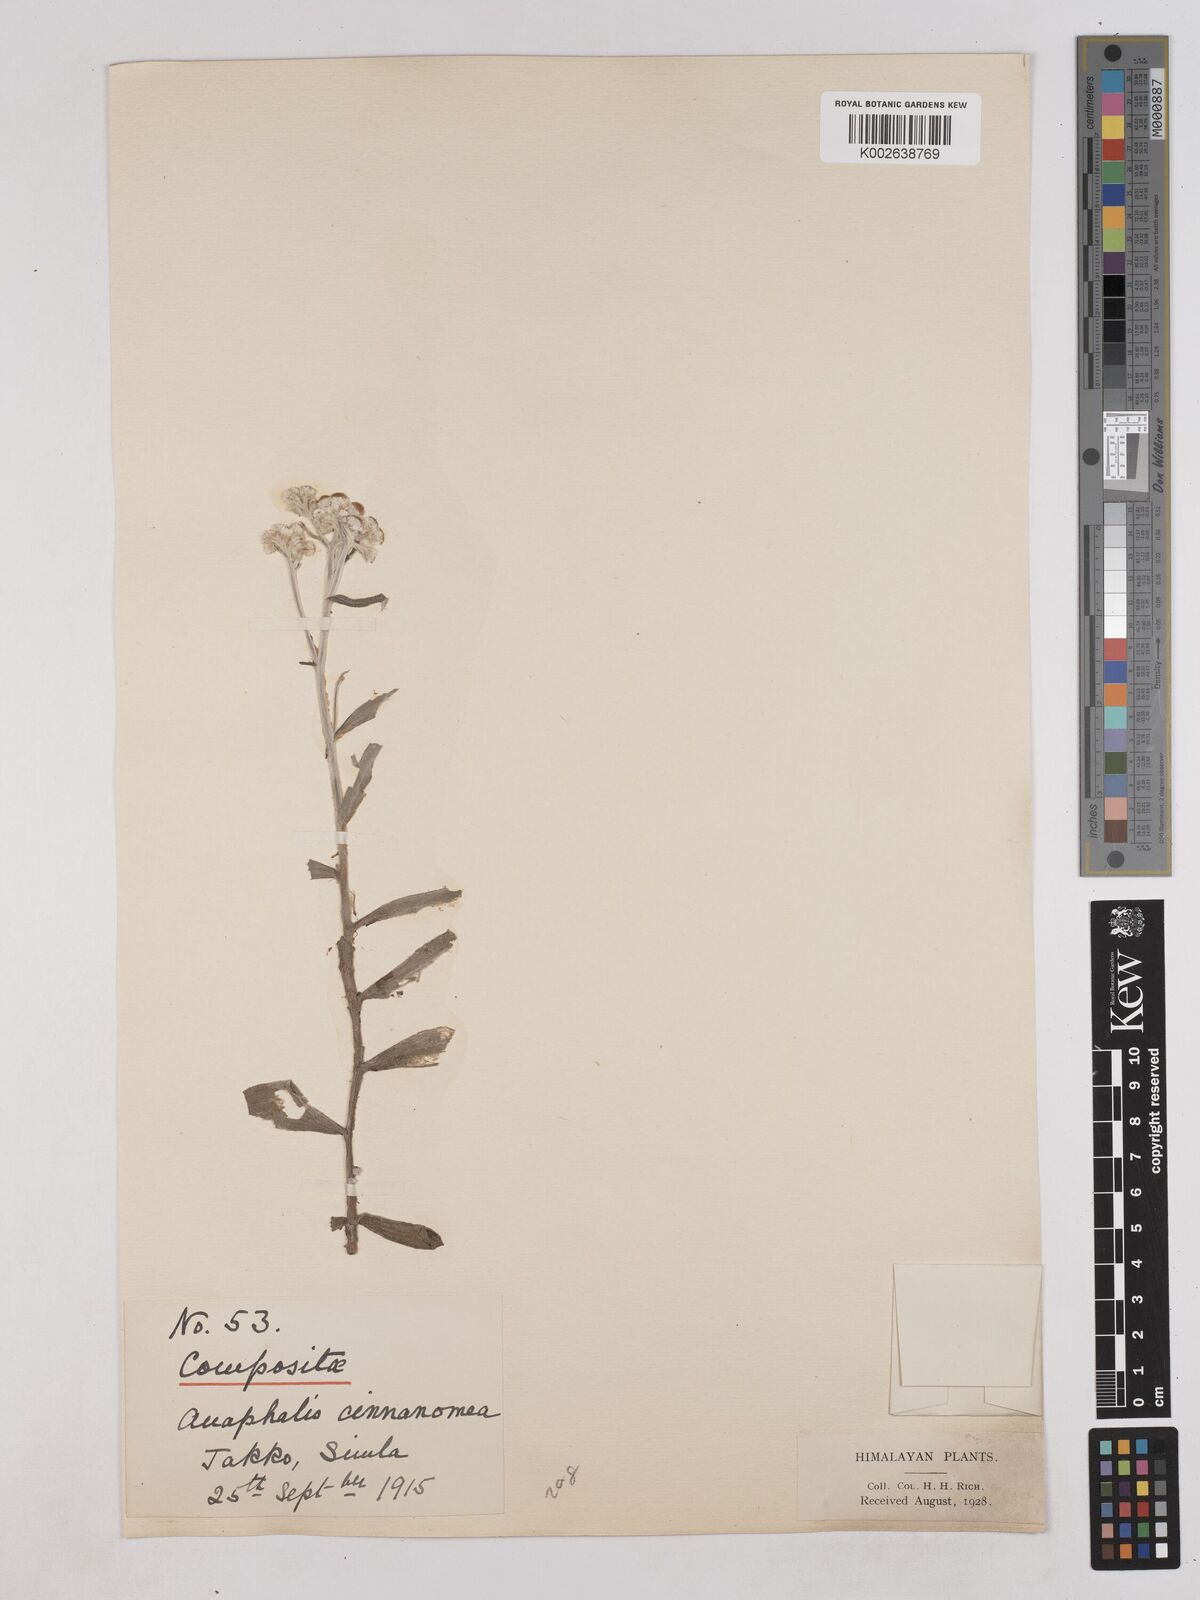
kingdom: Plantae
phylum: Tracheophyta
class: Magnoliopsida
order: Asterales
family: Asteraceae
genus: Anaphalis
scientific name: Anaphalis marcescens
